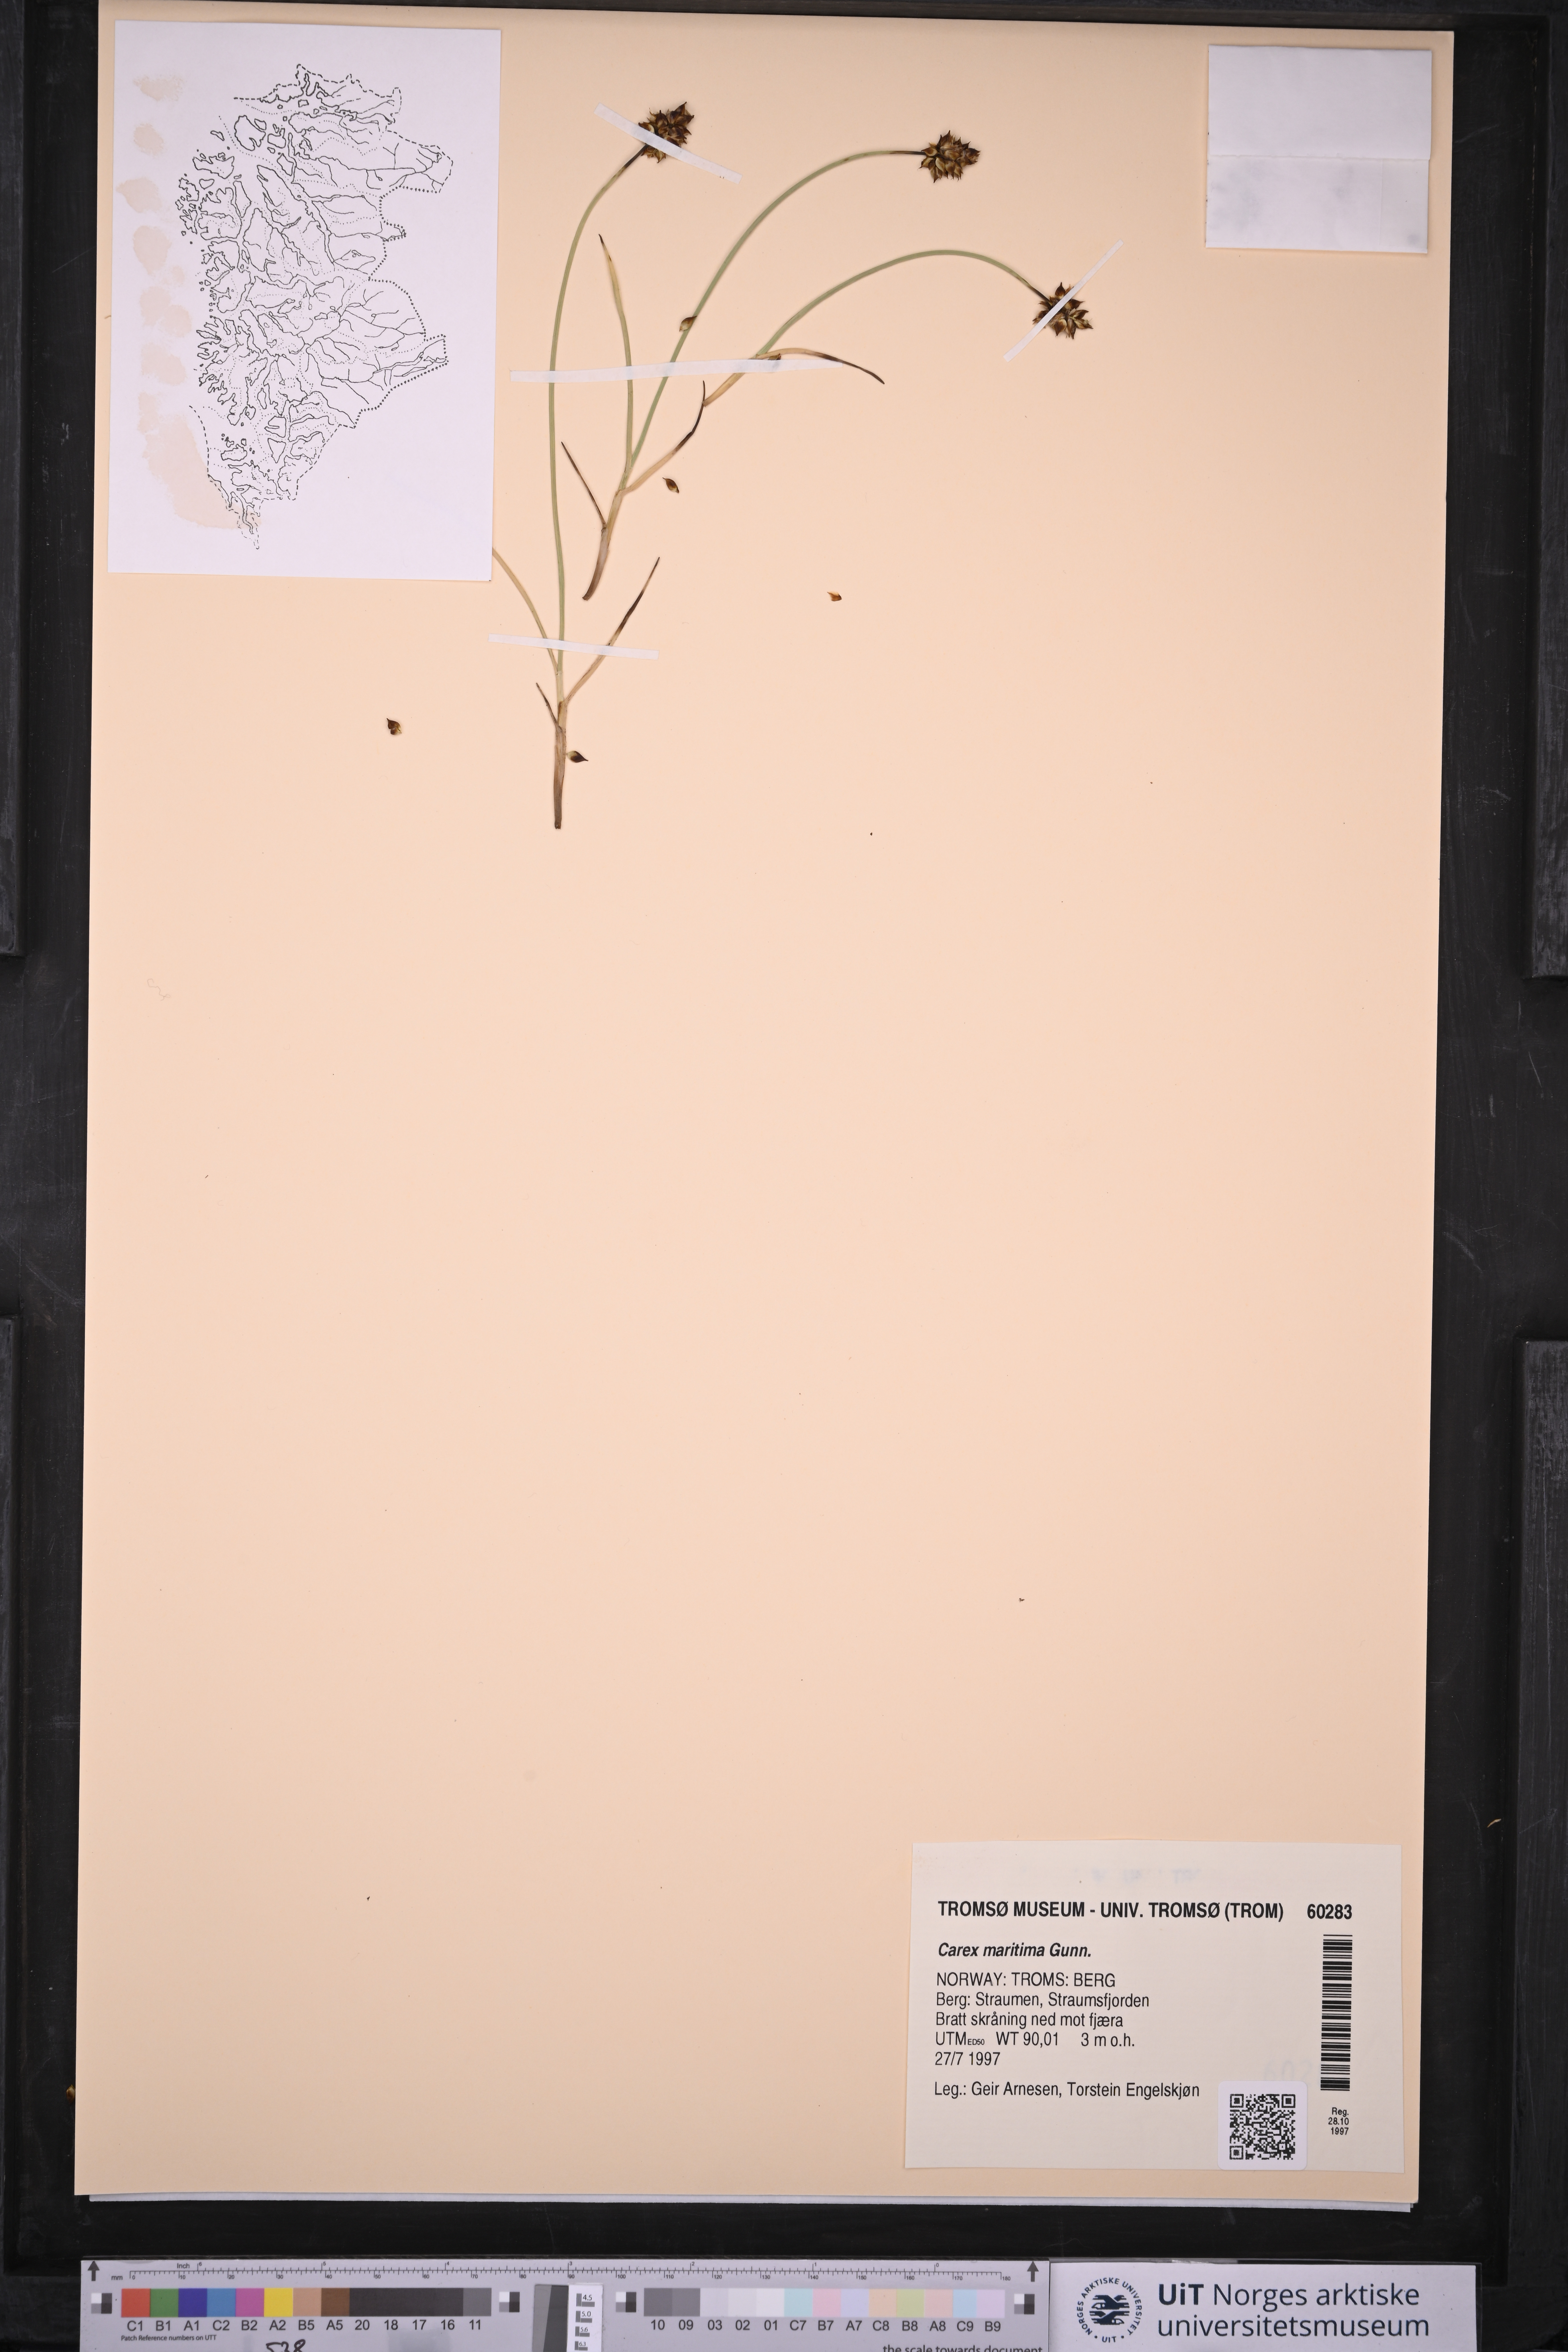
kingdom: Plantae
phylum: Tracheophyta
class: Liliopsida
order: Poales
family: Cyperaceae
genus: Carex
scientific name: Carex maritima
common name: Curved sedge
